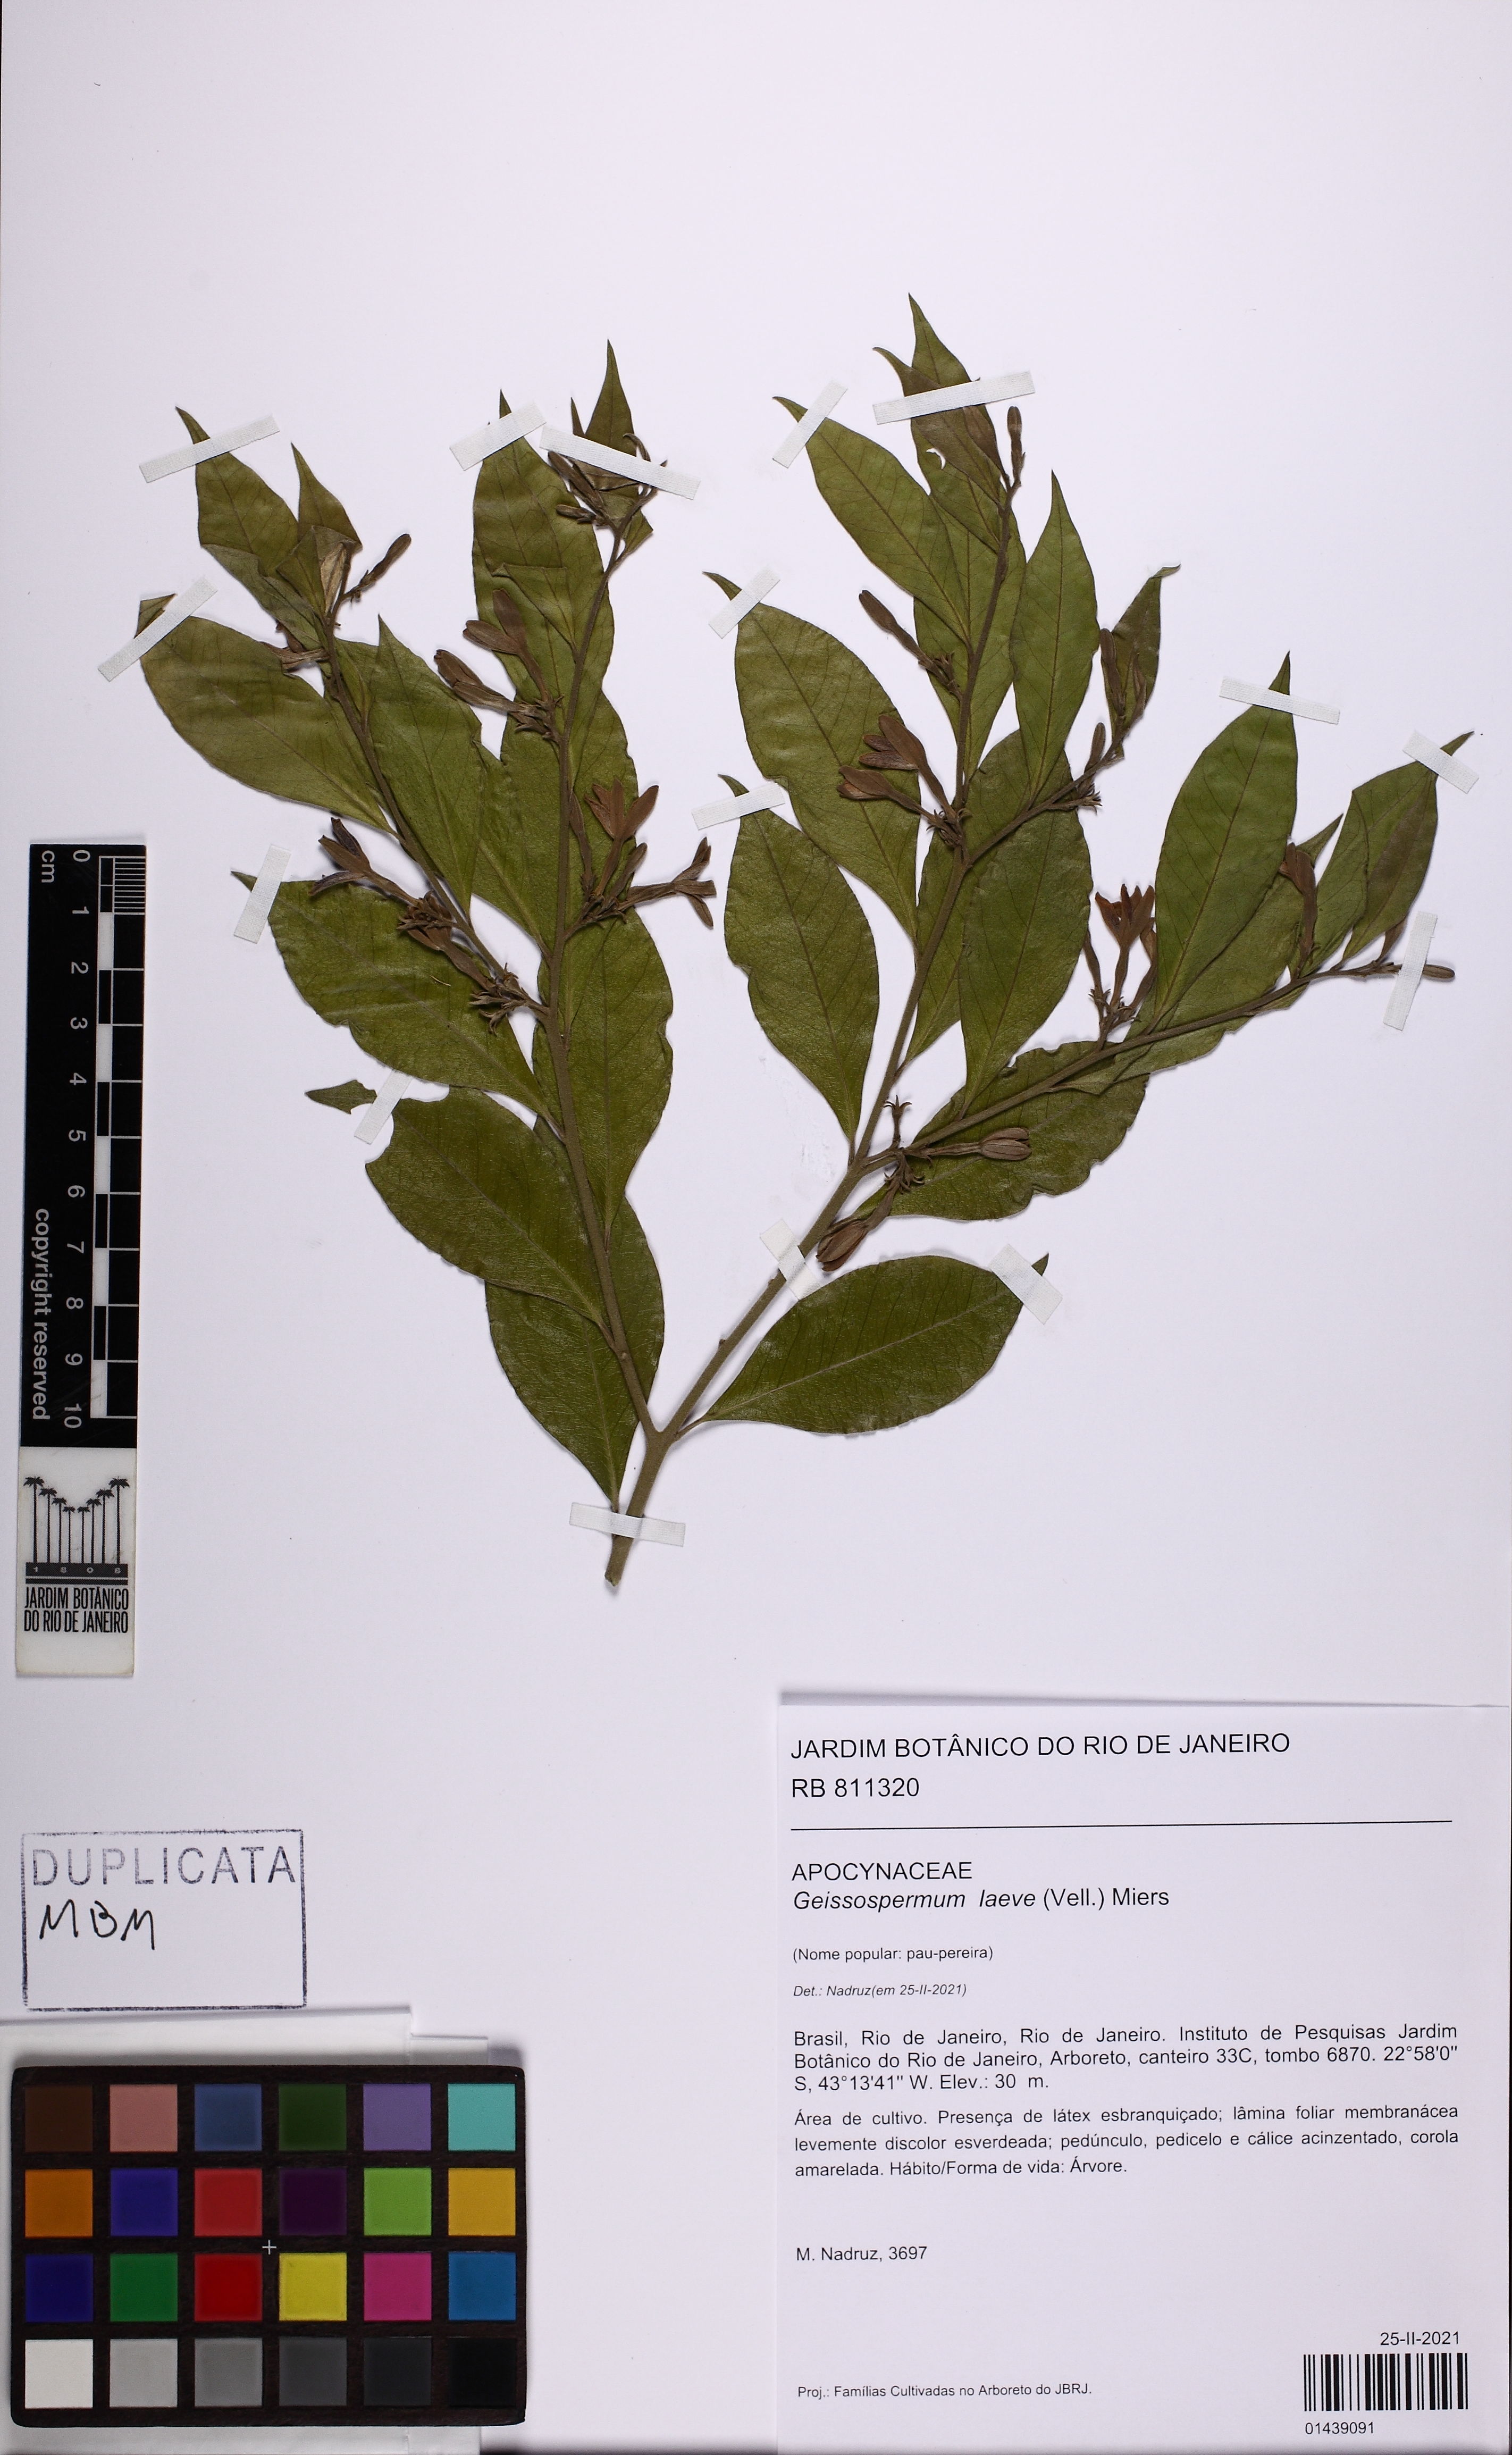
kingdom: Plantae
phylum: Tracheophyta
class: Magnoliopsida
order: Gentianales
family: Apocynaceae
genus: Geissospermum
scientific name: Geissospermum laeve
